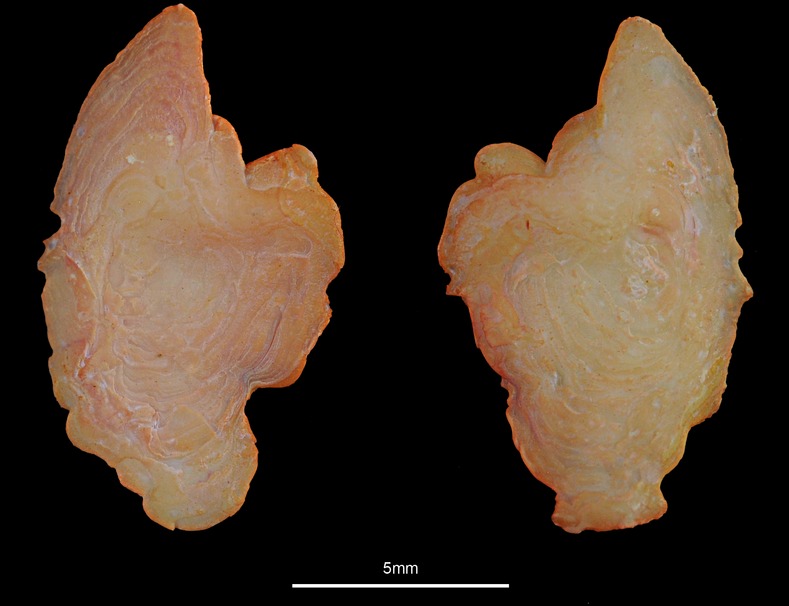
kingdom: Animalia
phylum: Chordata
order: Scorpaeniformes
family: Sebastidae
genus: Sebastes
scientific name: Sebastes norvegicus
